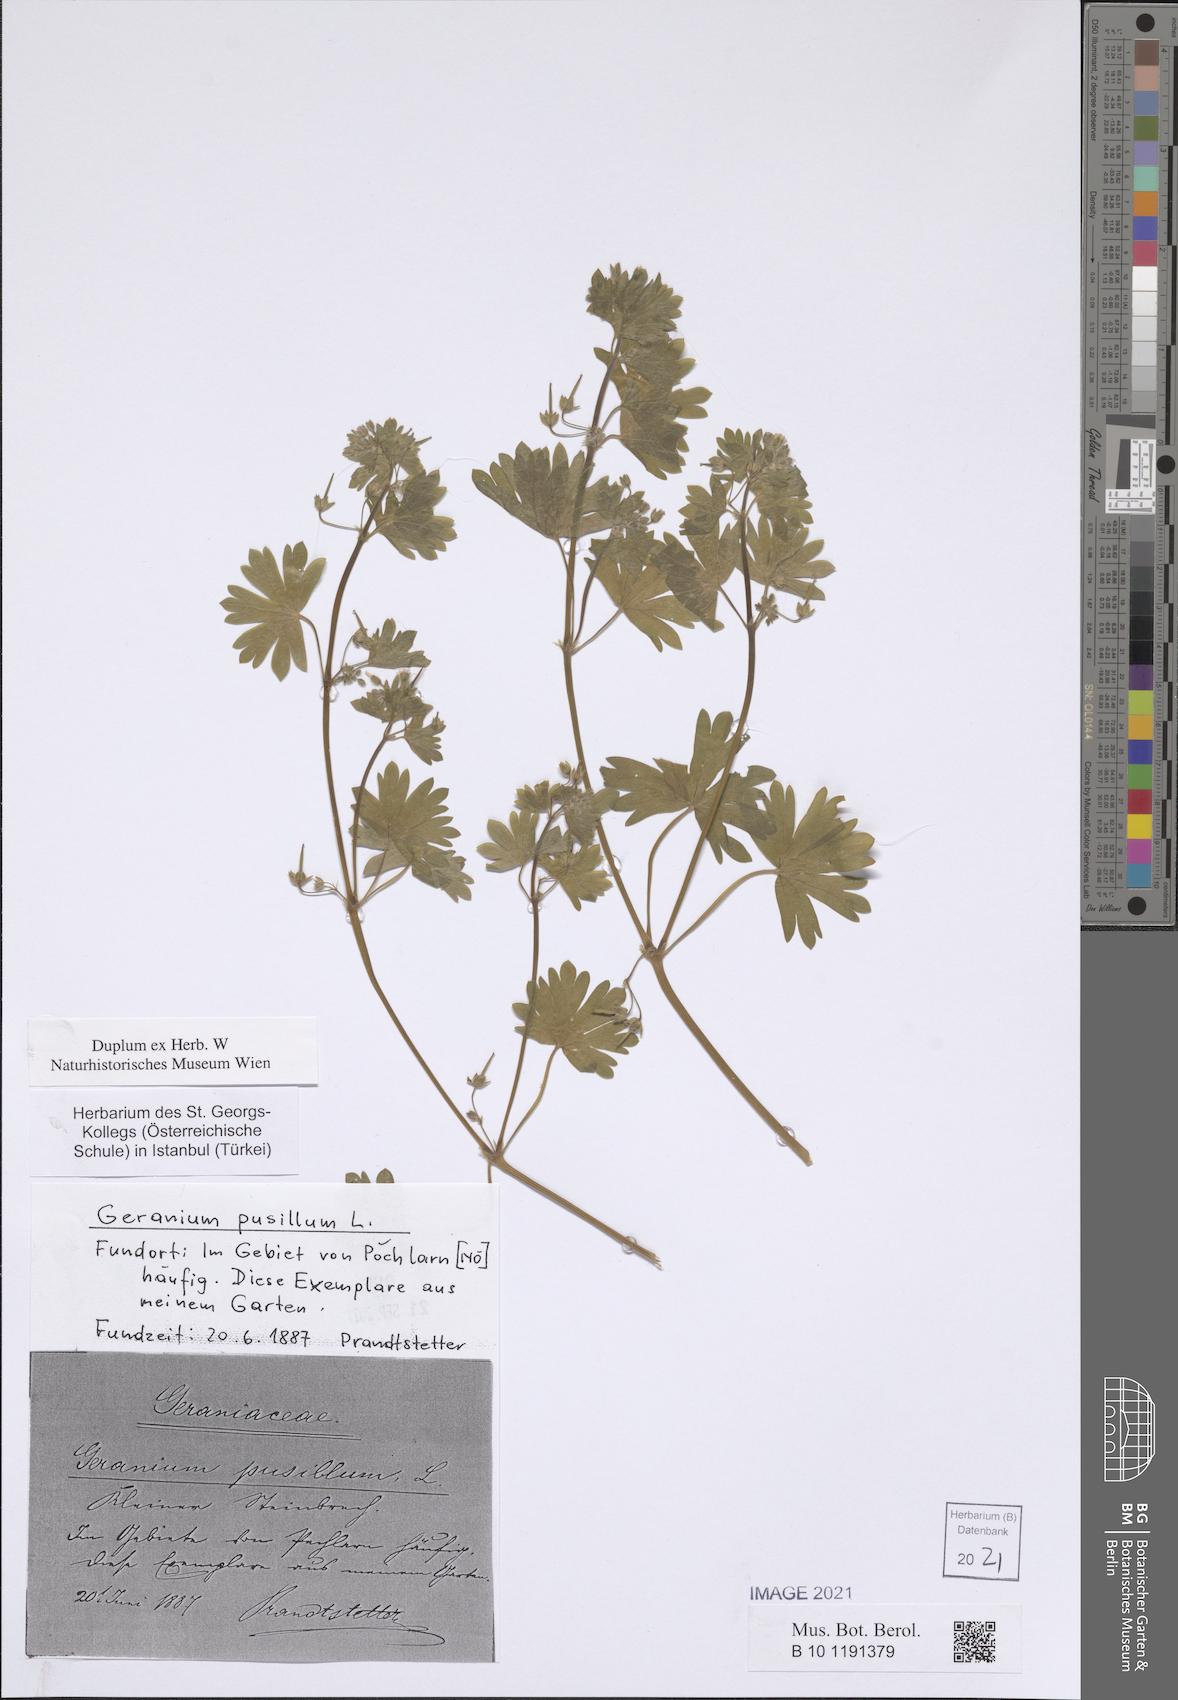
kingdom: Plantae
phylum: Tracheophyta
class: Magnoliopsida
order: Geraniales
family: Geraniaceae
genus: Geranium
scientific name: Geranium pusillum
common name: Small geranium
